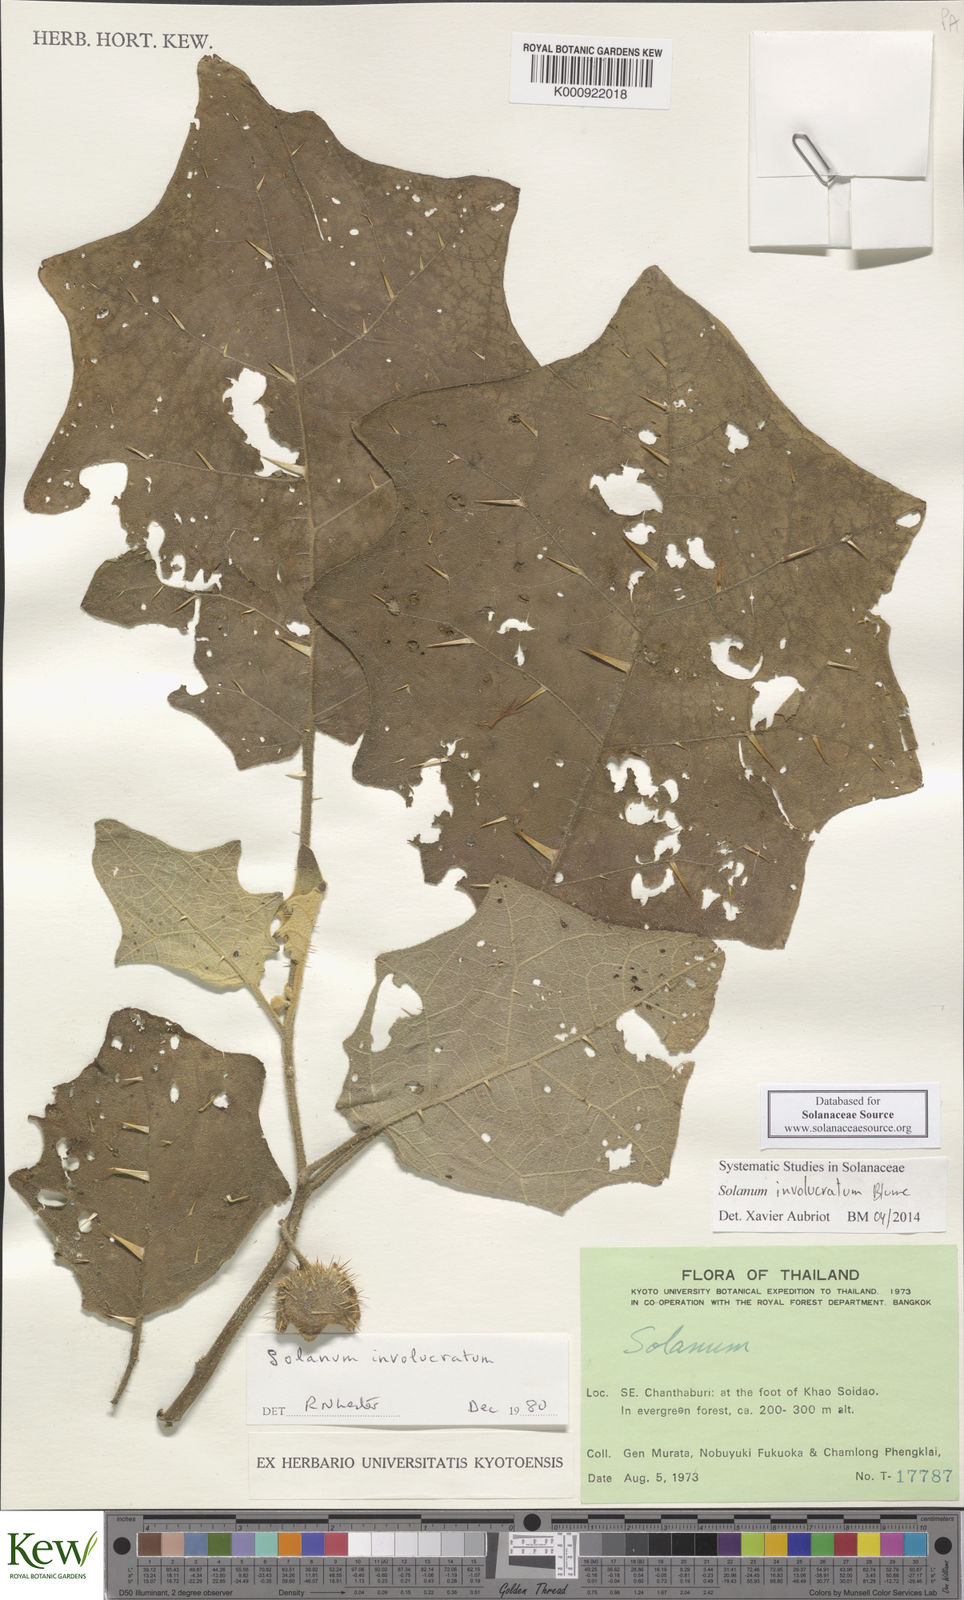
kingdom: Plantae
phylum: Tracheophyta
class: Magnoliopsida
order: Solanales
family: Solanaceae
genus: Solanum
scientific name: Solanum involucratum
